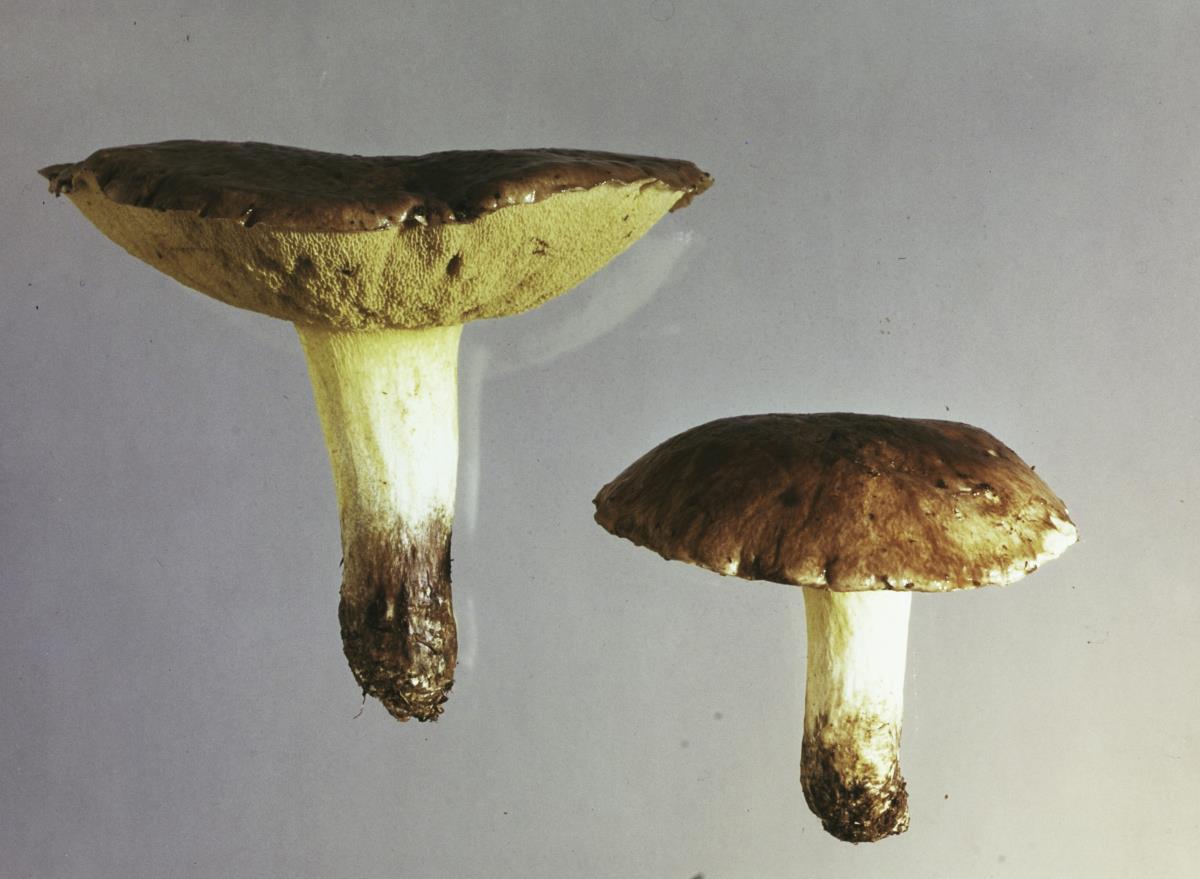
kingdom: Fungi
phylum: Basidiomycota
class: Agaricomycetes
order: Boletales
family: Suillaceae
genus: Suillus
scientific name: Suillus brevipes
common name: Short-stalked suillus
